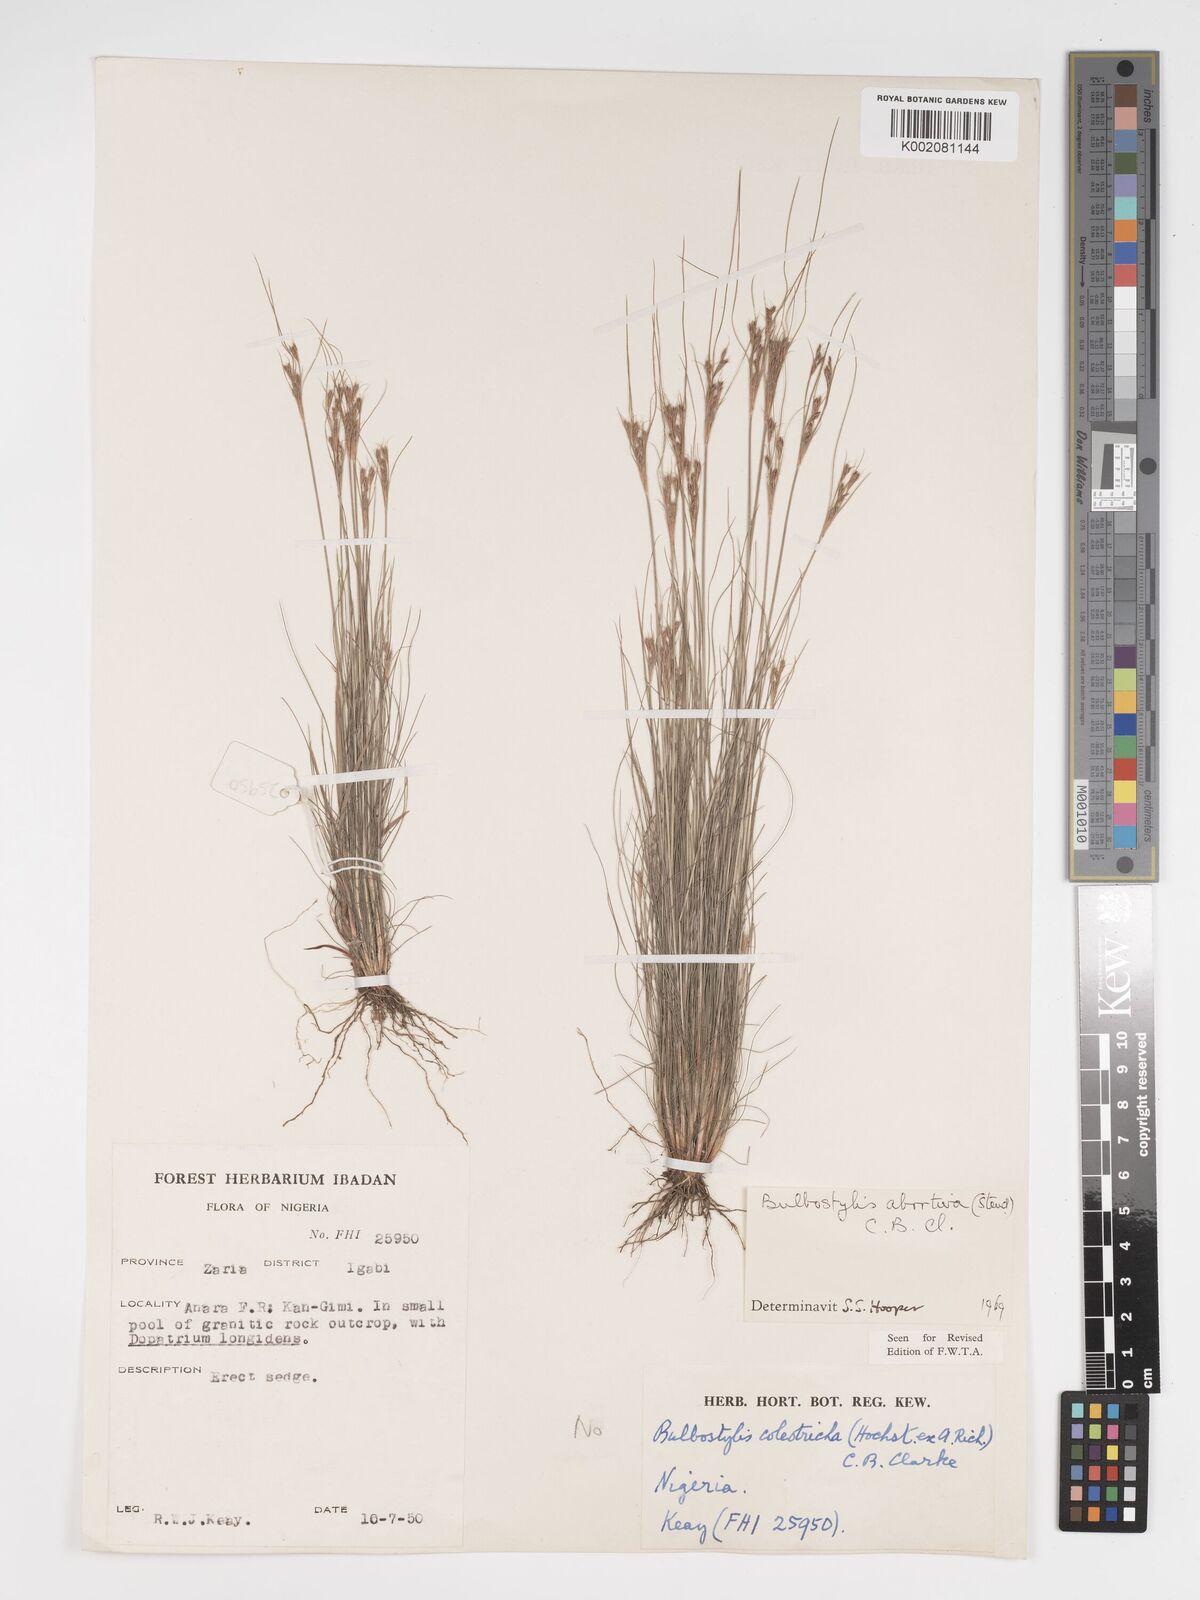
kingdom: Plantae
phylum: Tracheophyta
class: Liliopsida
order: Poales
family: Cyperaceae
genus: Bulbostylis
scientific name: Bulbostylis abortiva
